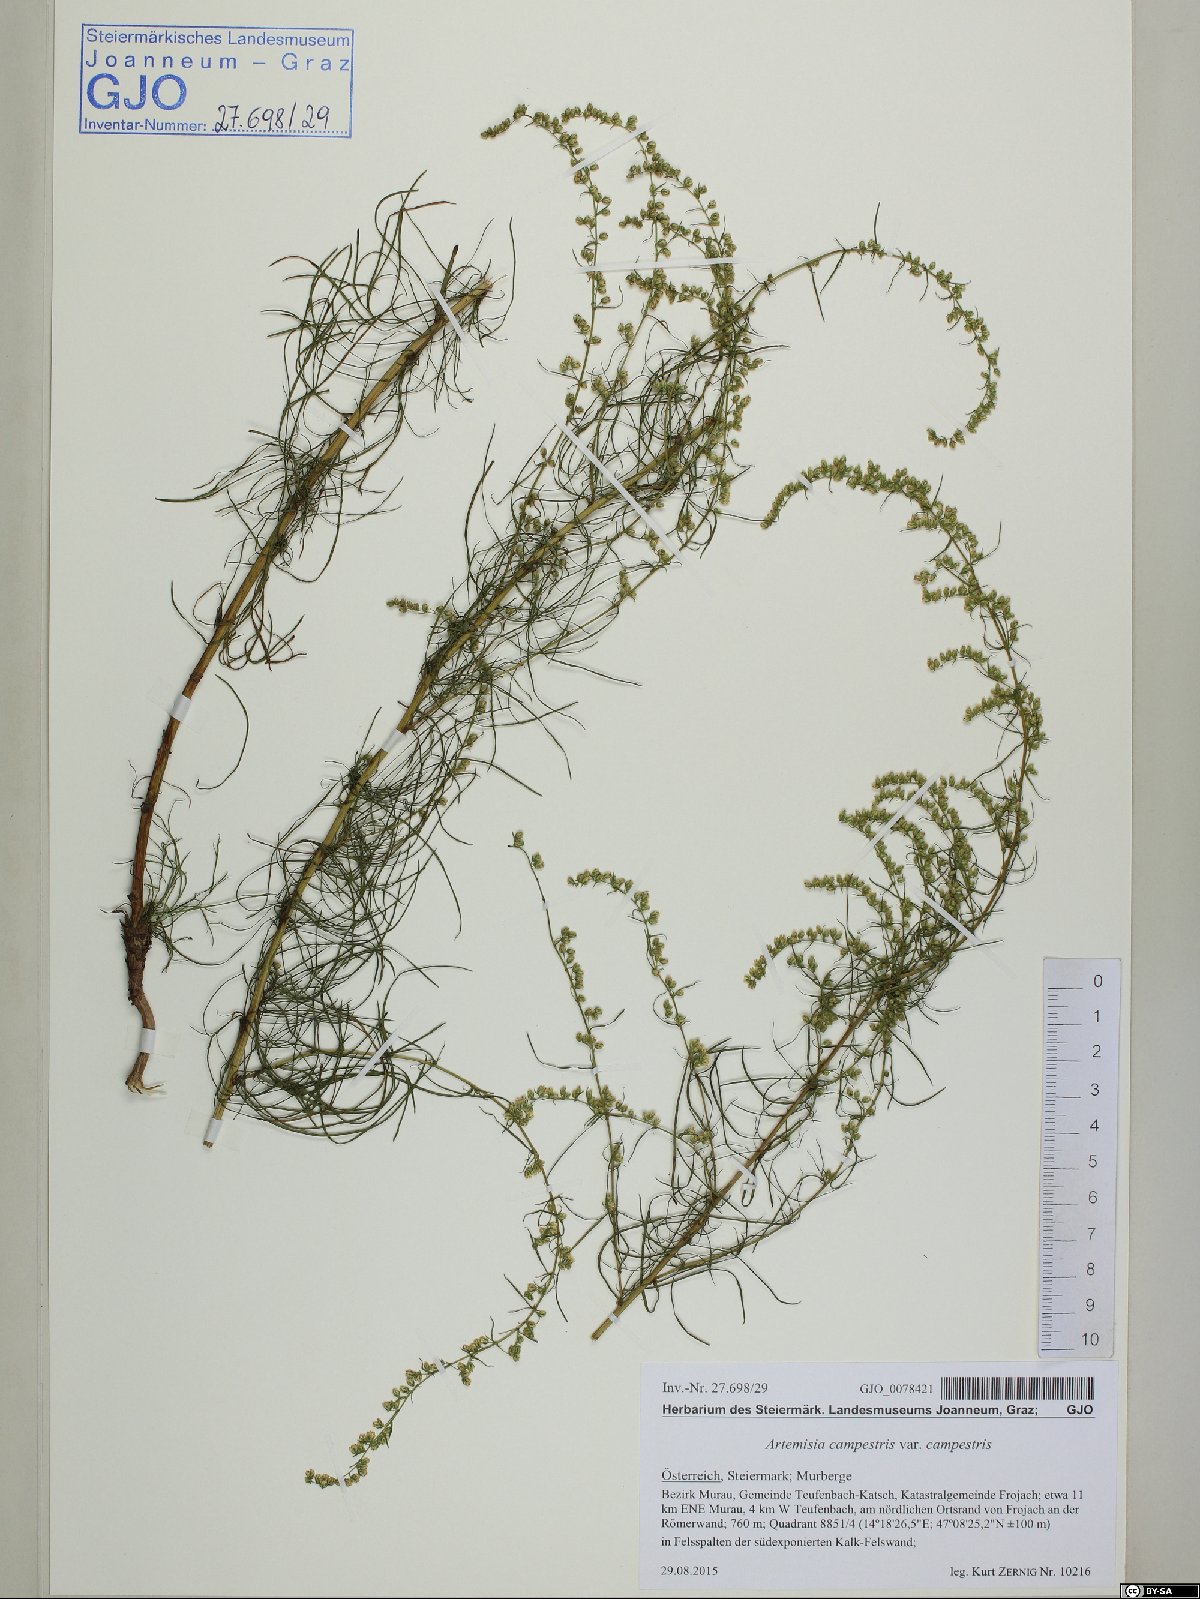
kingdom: Plantae
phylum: Tracheophyta
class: Magnoliopsida
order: Asterales
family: Asteraceae
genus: Artemisia
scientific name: Artemisia campestris
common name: Field wormwood
